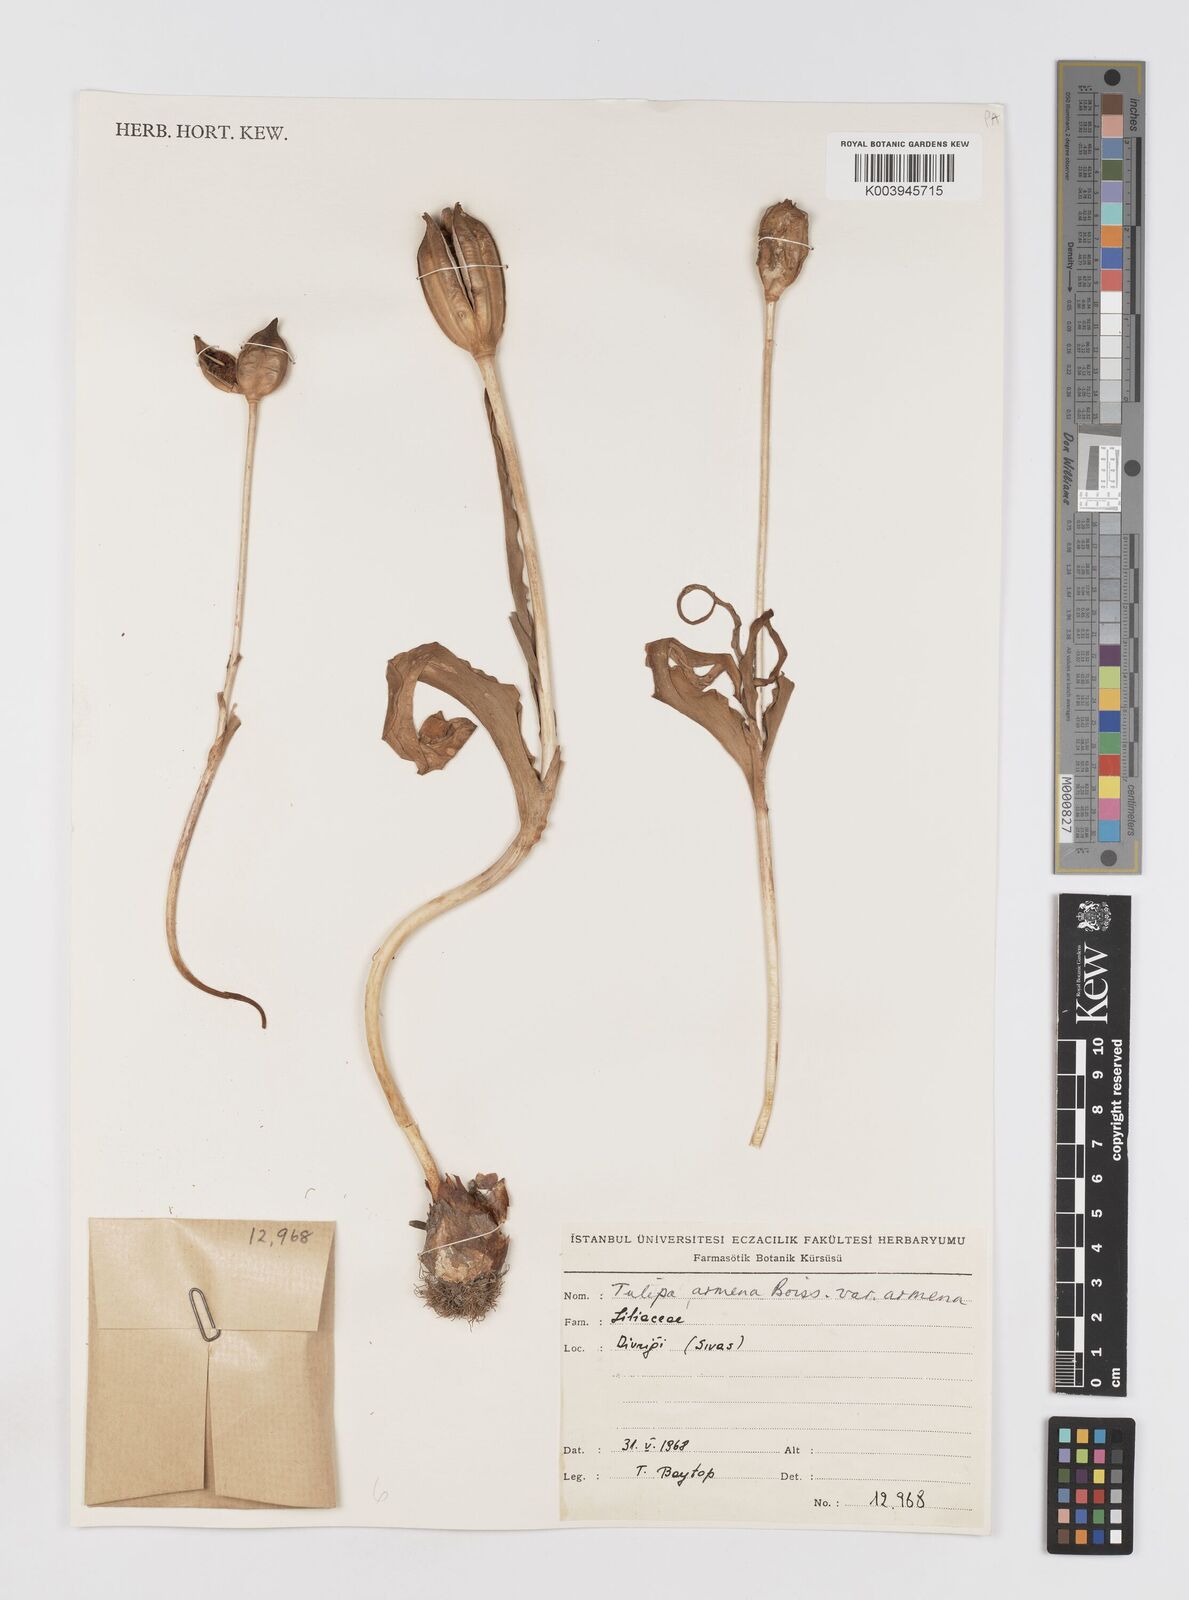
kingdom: Plantae
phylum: Tracheophyta
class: Liliopsida
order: Liliales
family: Liliaceae
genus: Tulipa
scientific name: Tulipa armena
